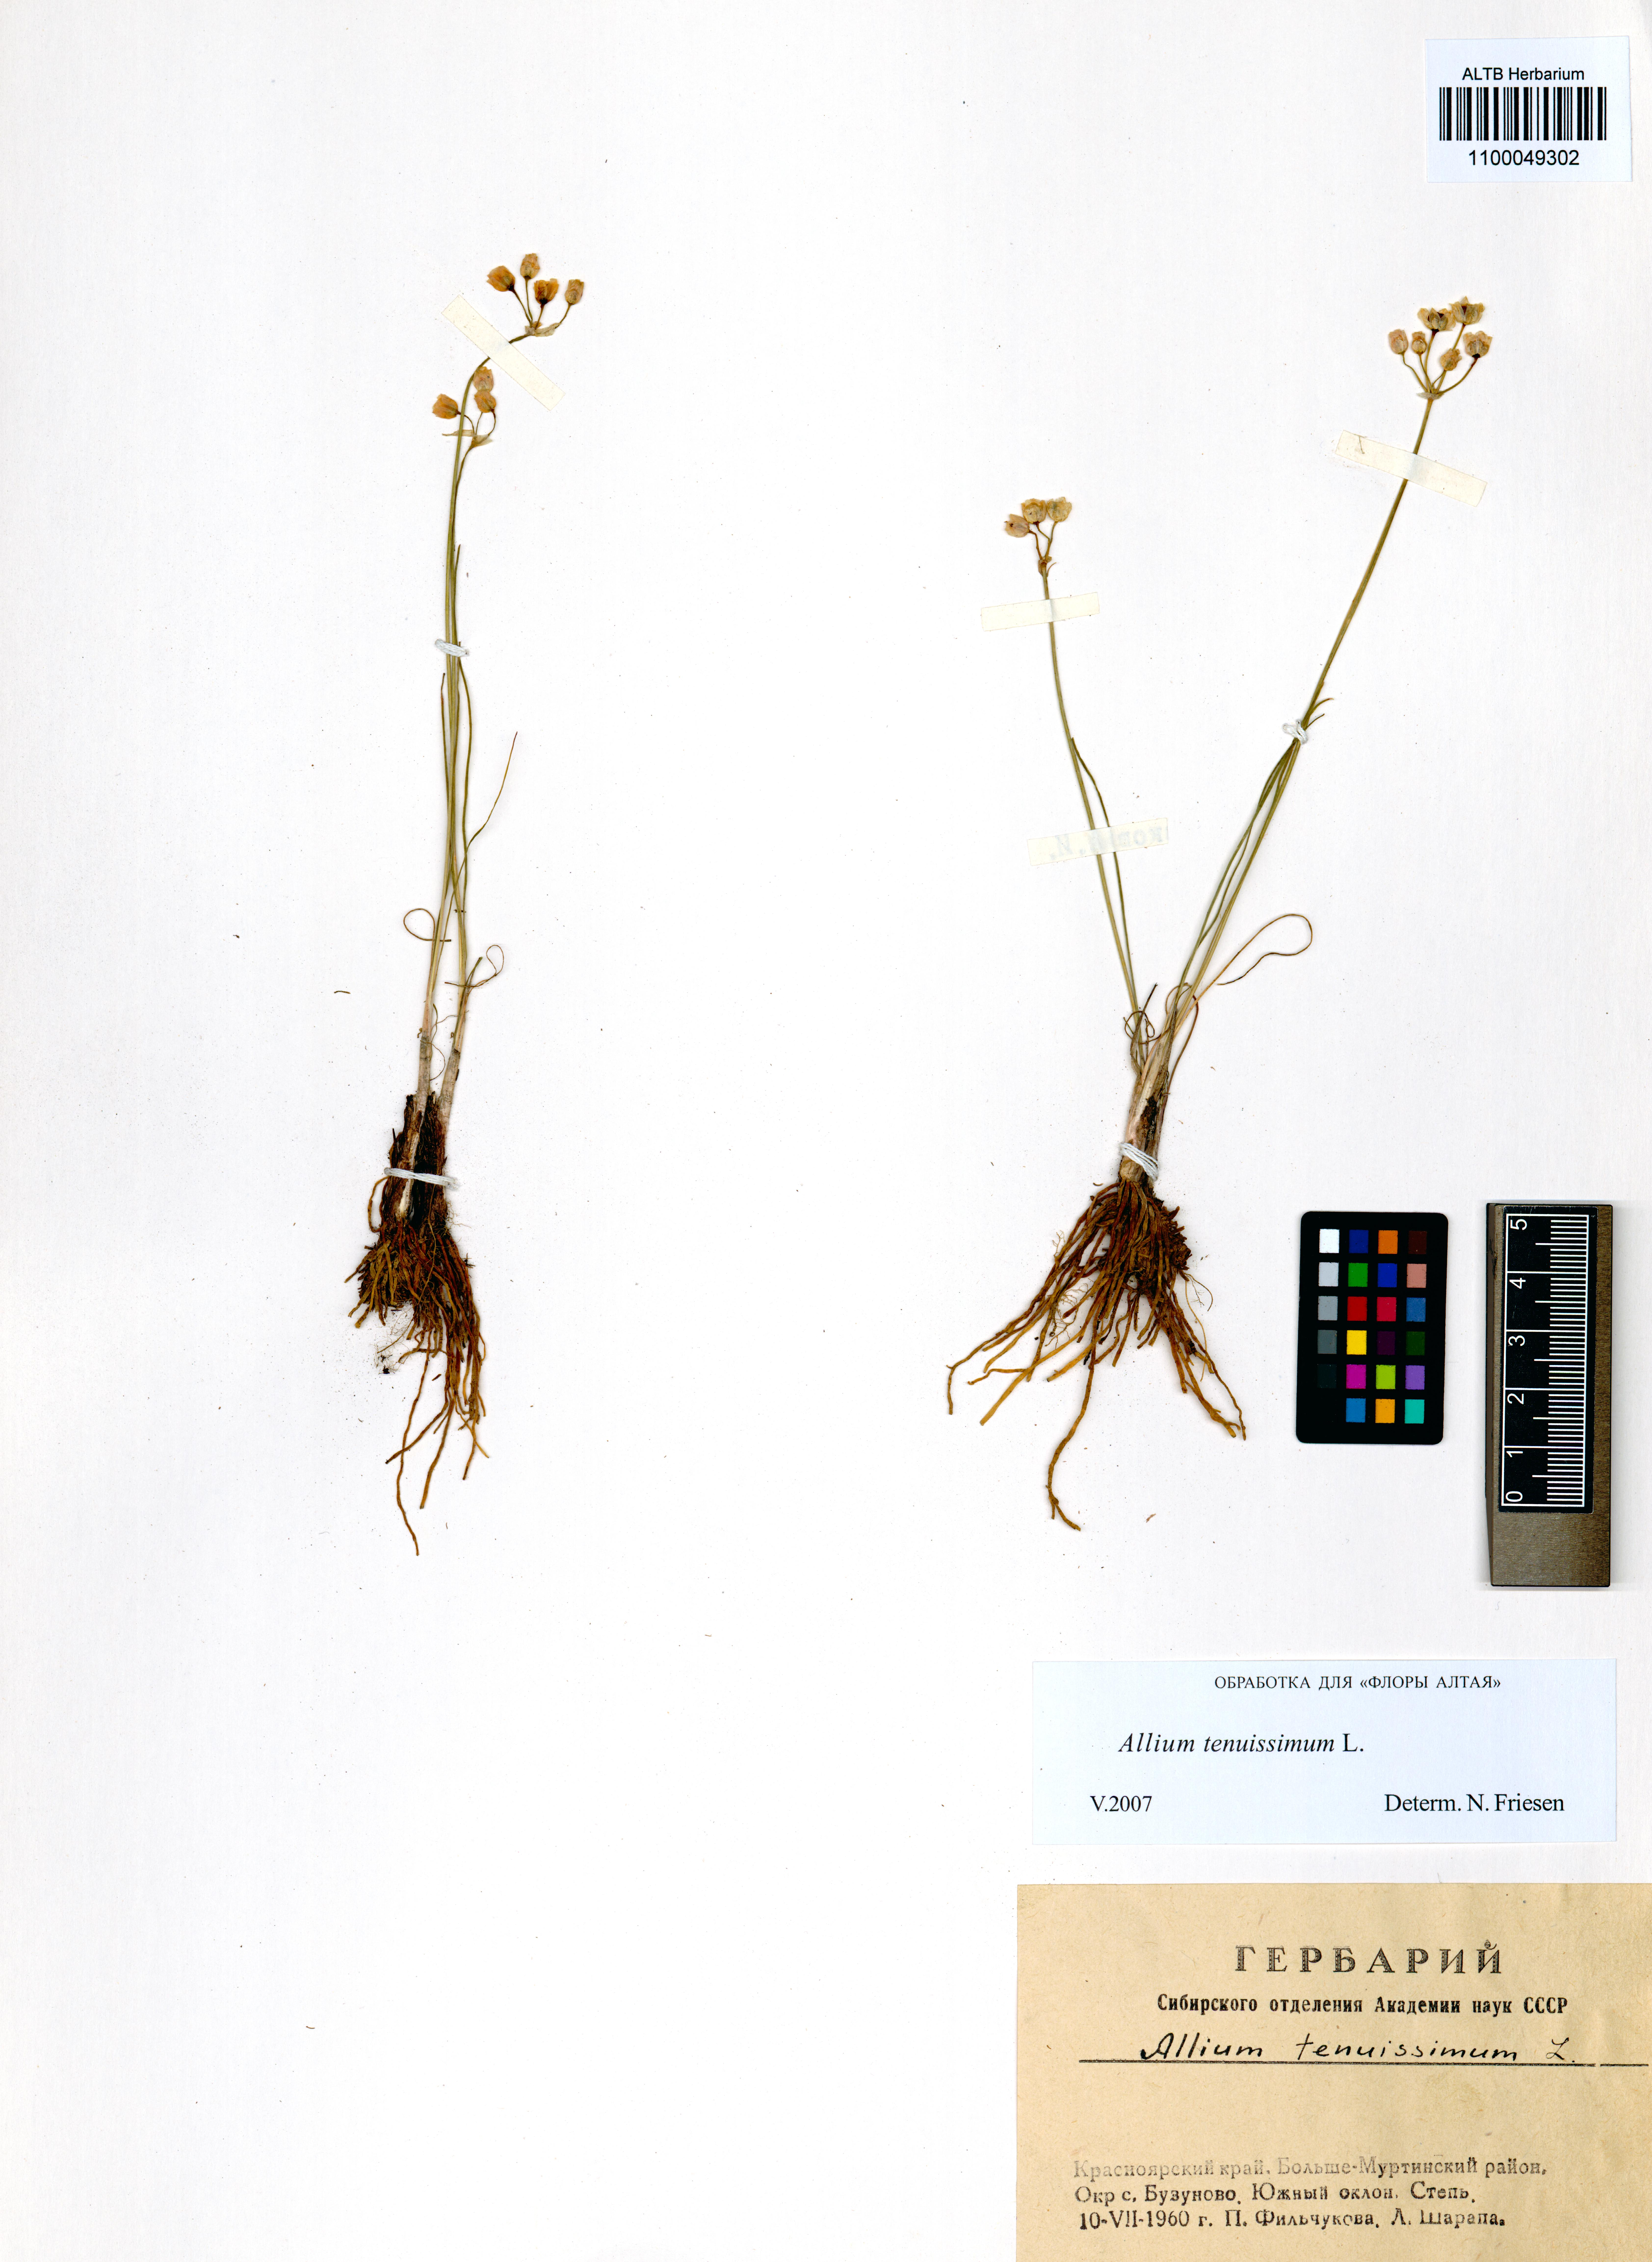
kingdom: Plantae
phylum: Tracheophyta
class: Liliopsida
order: Asparagales
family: Amaryllidaceae
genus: Allium
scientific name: Allium tenuissimum
